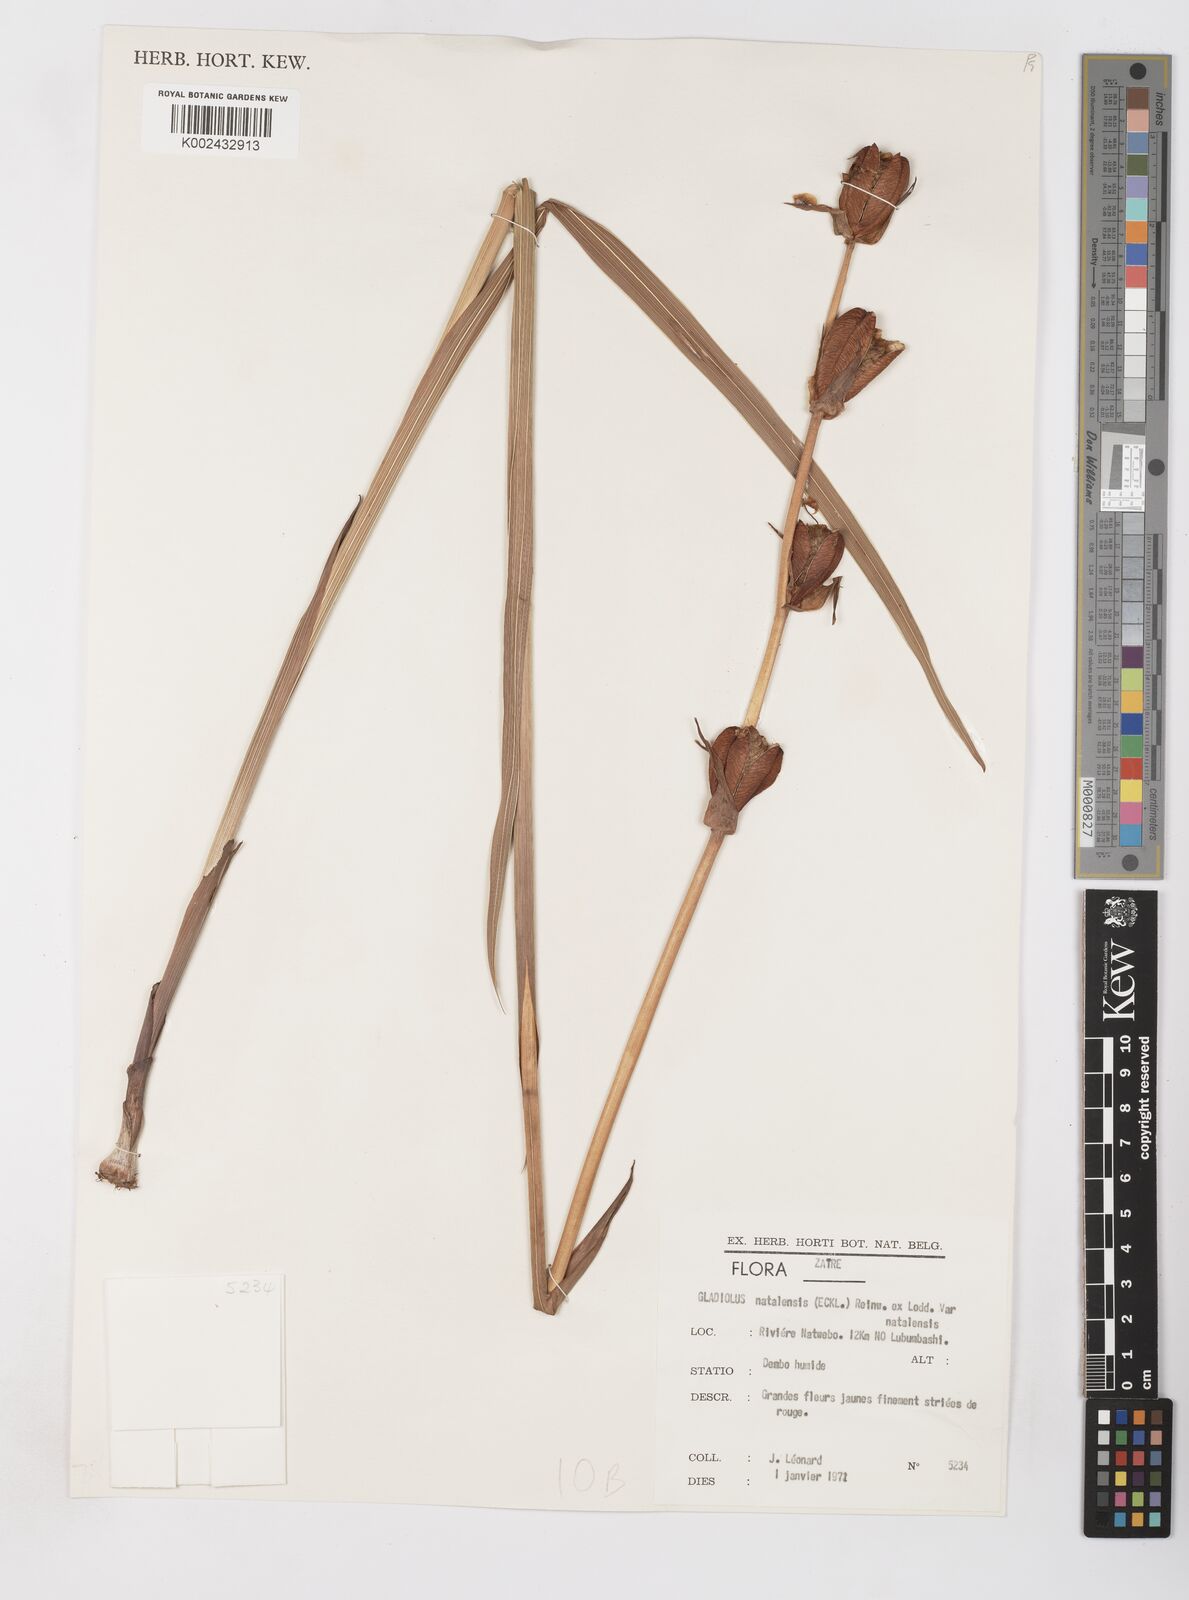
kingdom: Plantae
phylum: Tracheophyta
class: Liliopsida
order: Asparagales
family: Iridaceae
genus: Gladiolus
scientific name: Gladiolus dalenii
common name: Cornflag
